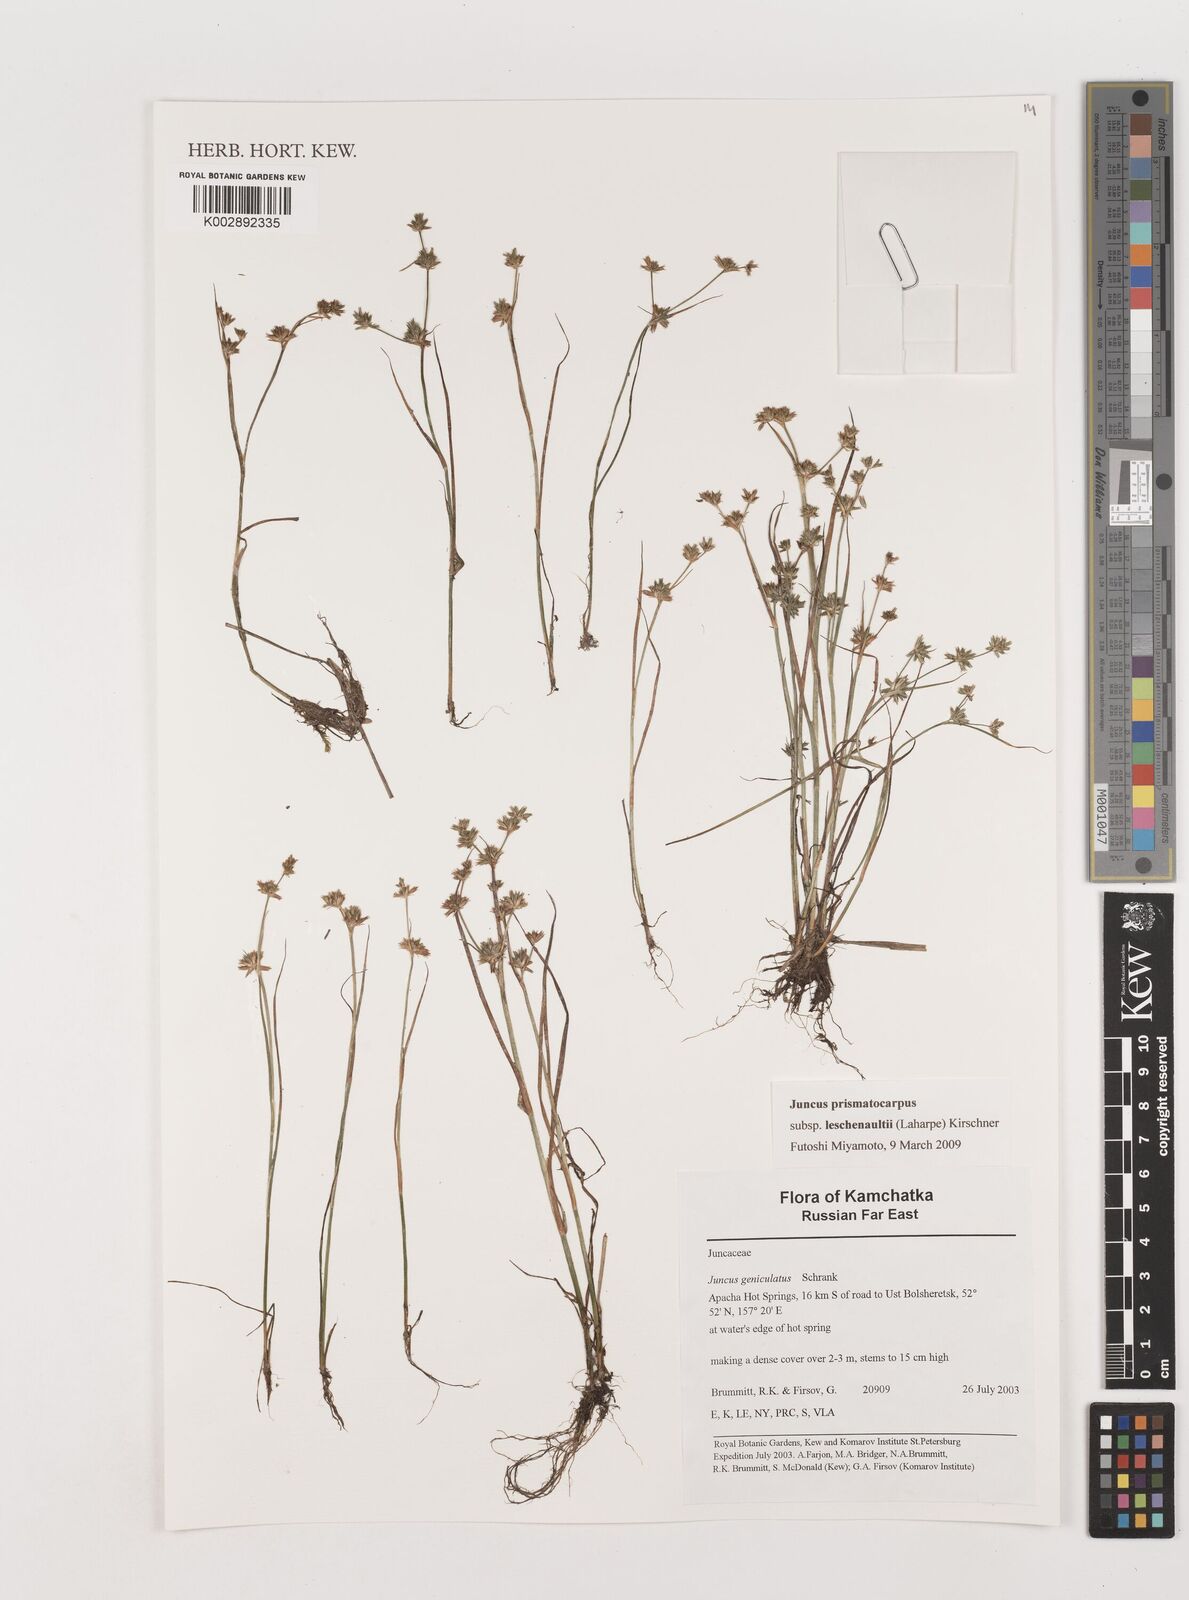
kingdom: Plantae
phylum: Tracheophyta
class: Liliopsida
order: Poales
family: Juncaceae
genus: Juncus
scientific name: Juncus articulatus
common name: Jointed rush
